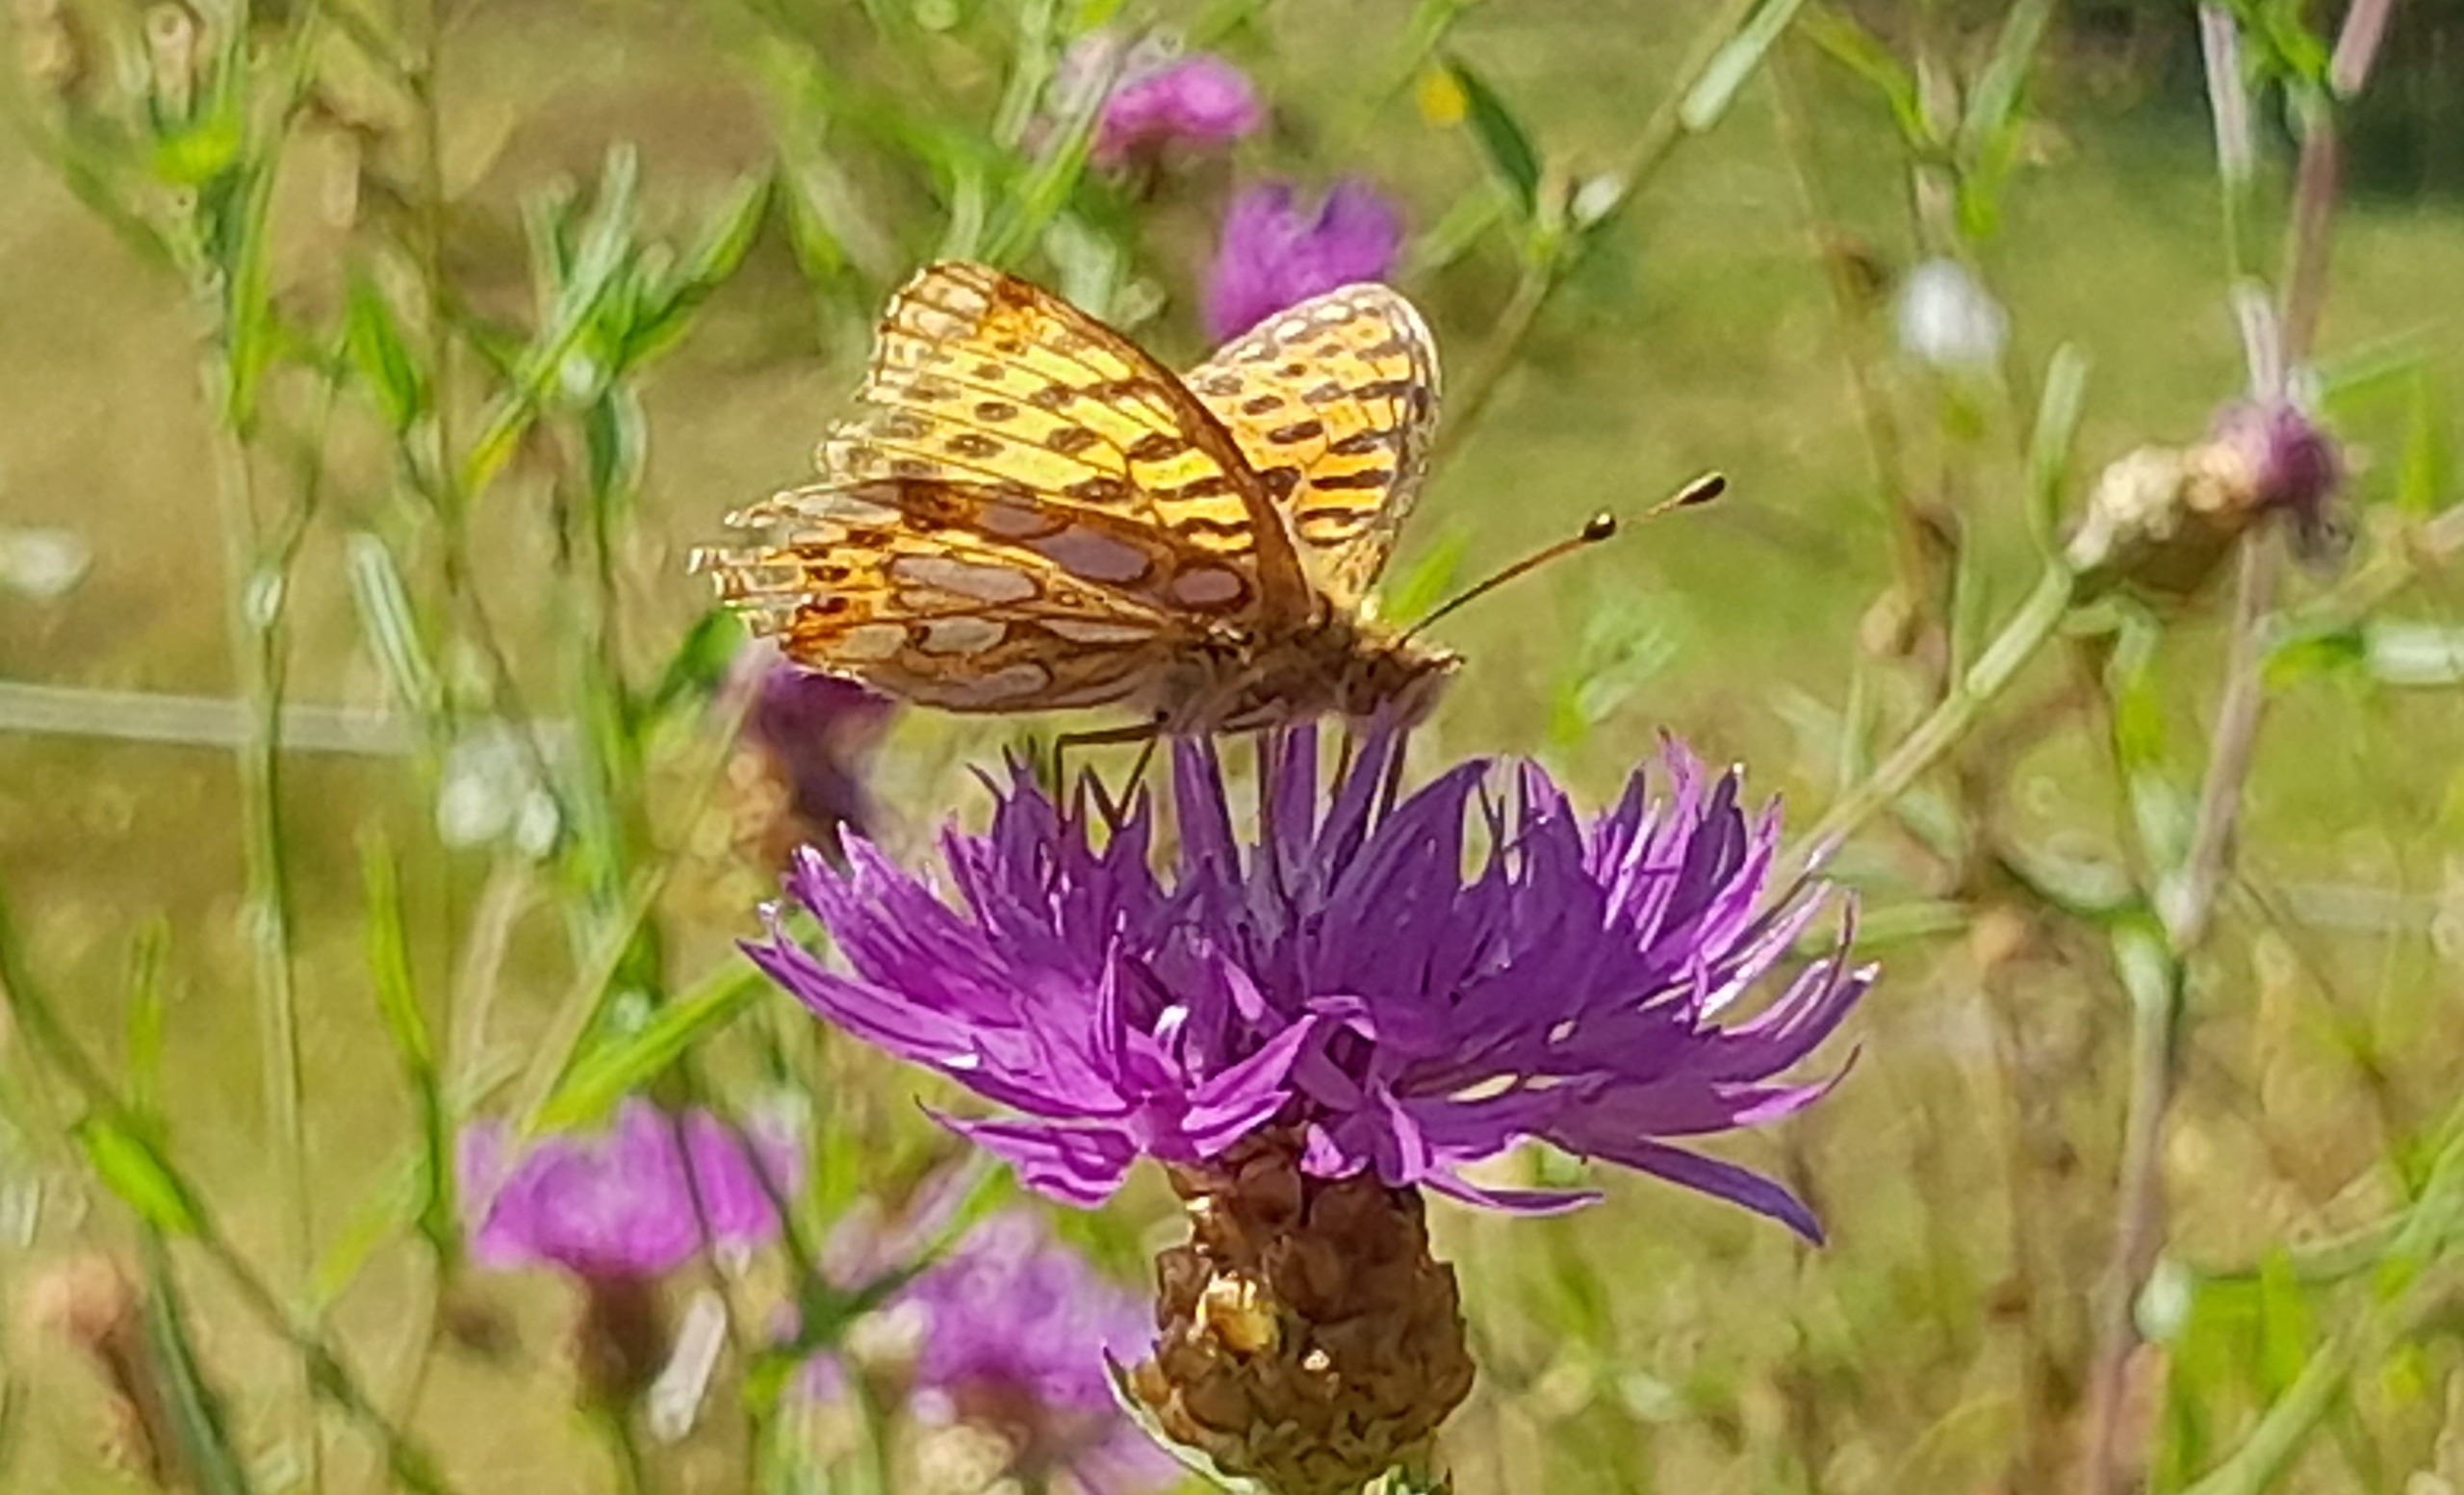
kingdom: Animalia
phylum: Arthropoda
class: Insecta
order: Lepidoptera
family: Nymphalidae
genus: Issoria
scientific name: Issoria lathonia
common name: Storplettet perlemorsommerfugl
